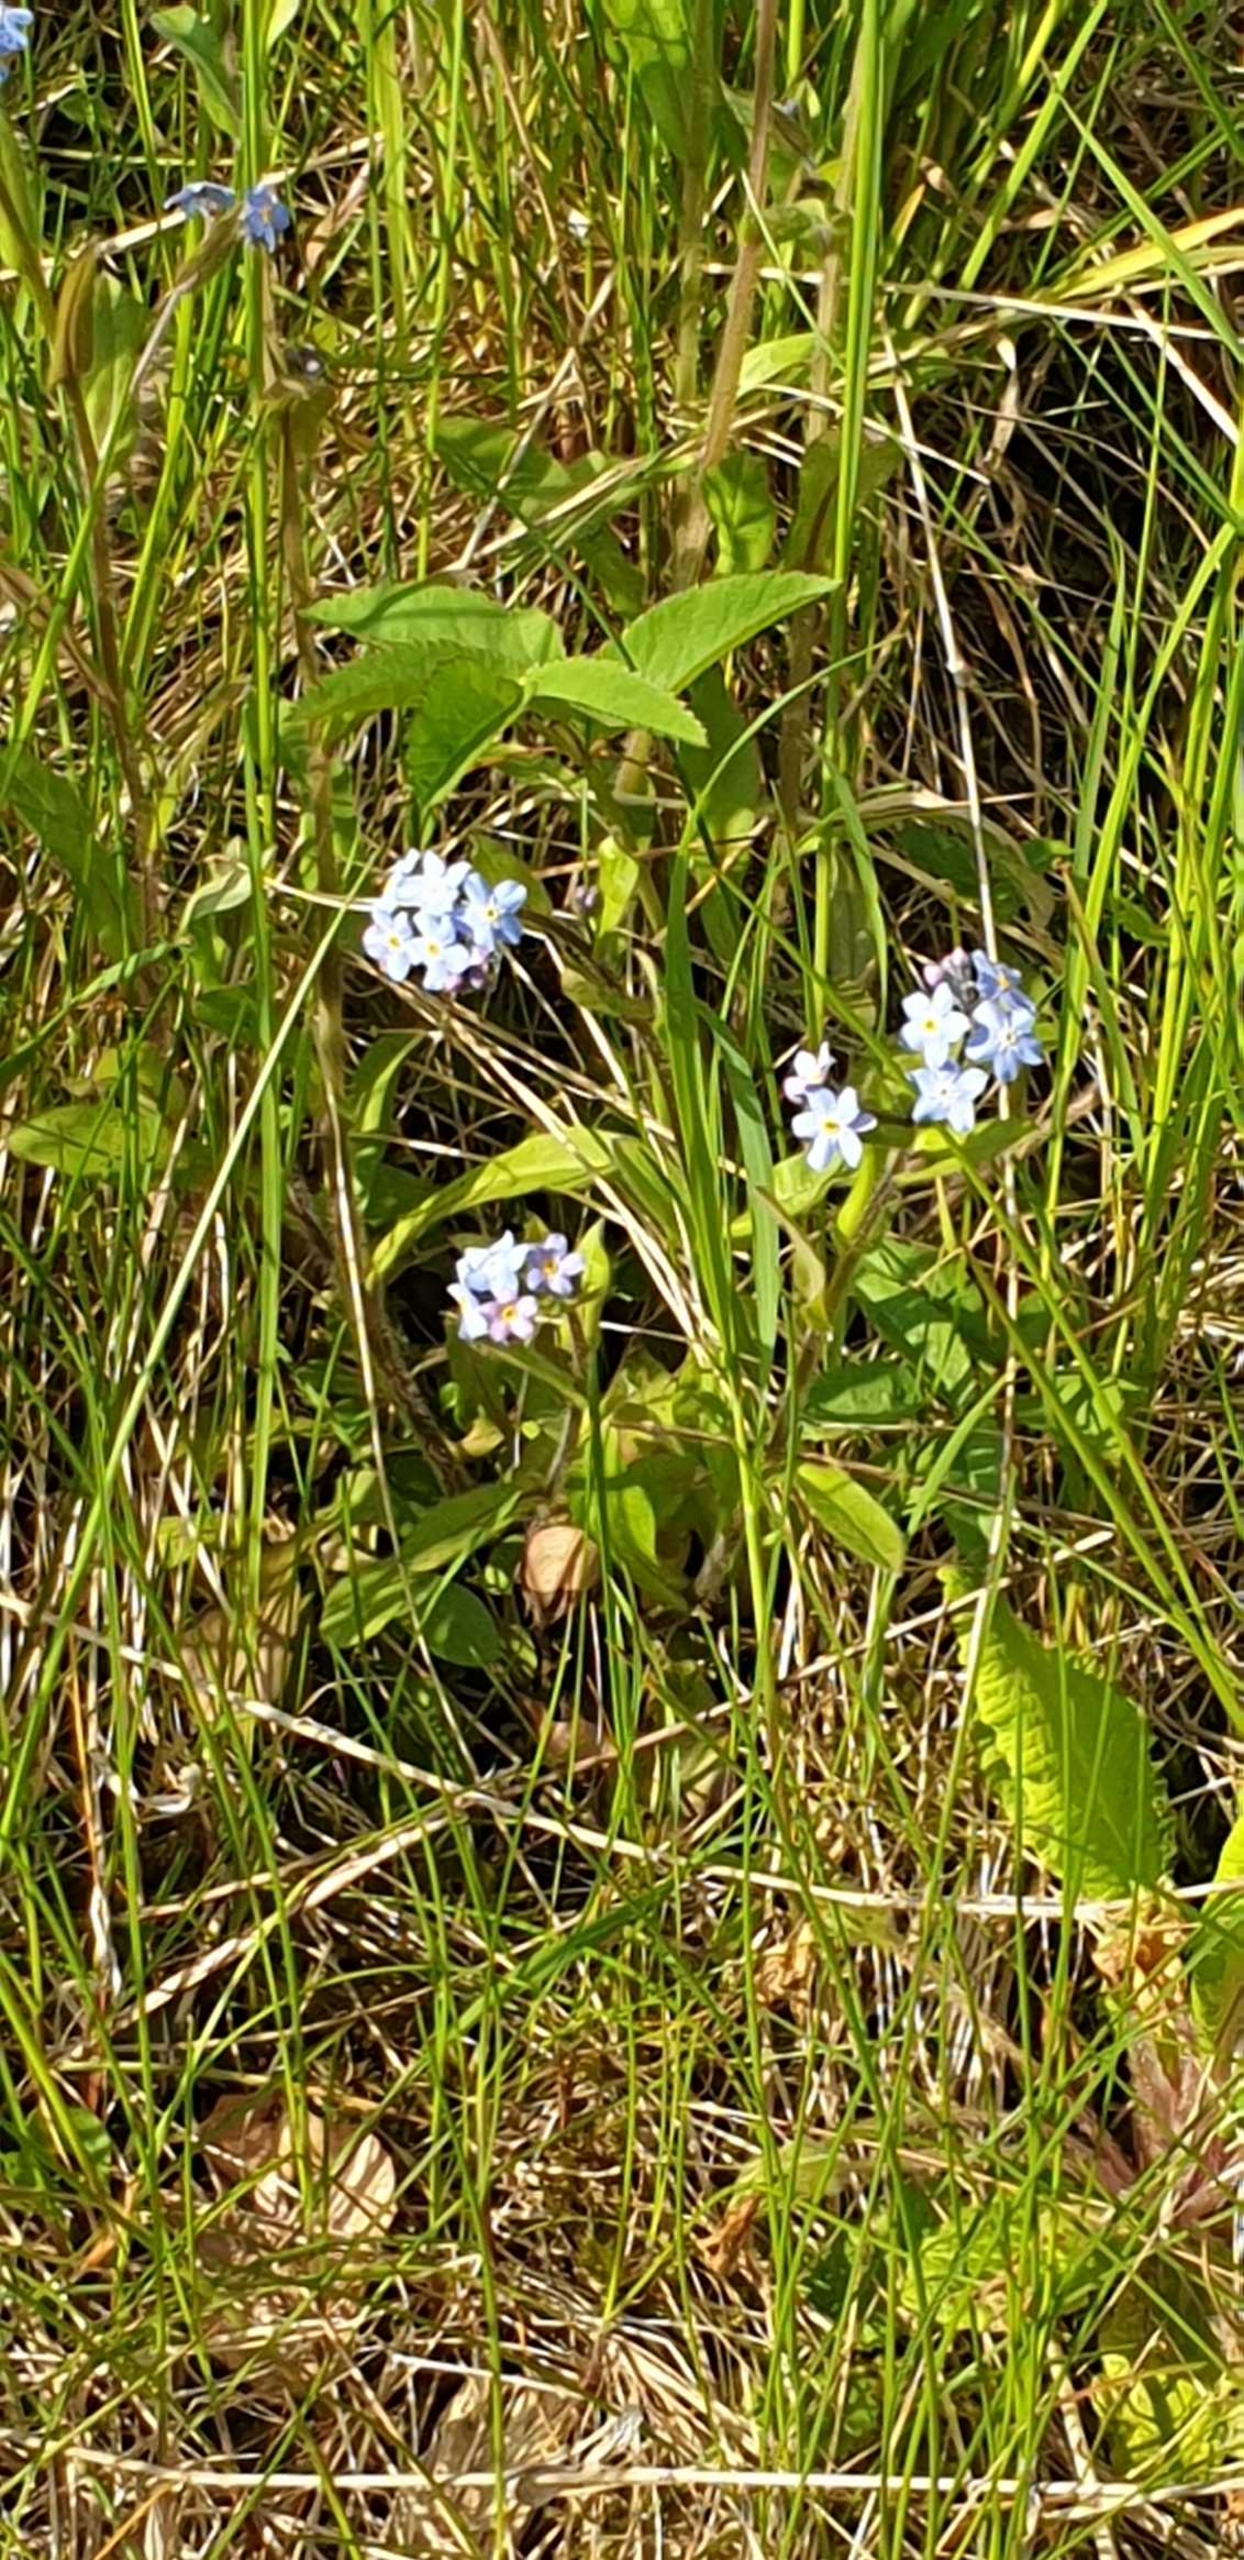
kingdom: Plantae
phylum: Tracheophyta
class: Magnoliopsida
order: Boraginales
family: Boraginaceae
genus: Myosotis
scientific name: Myosotis sylvatica
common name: Skov-forglemmigej
